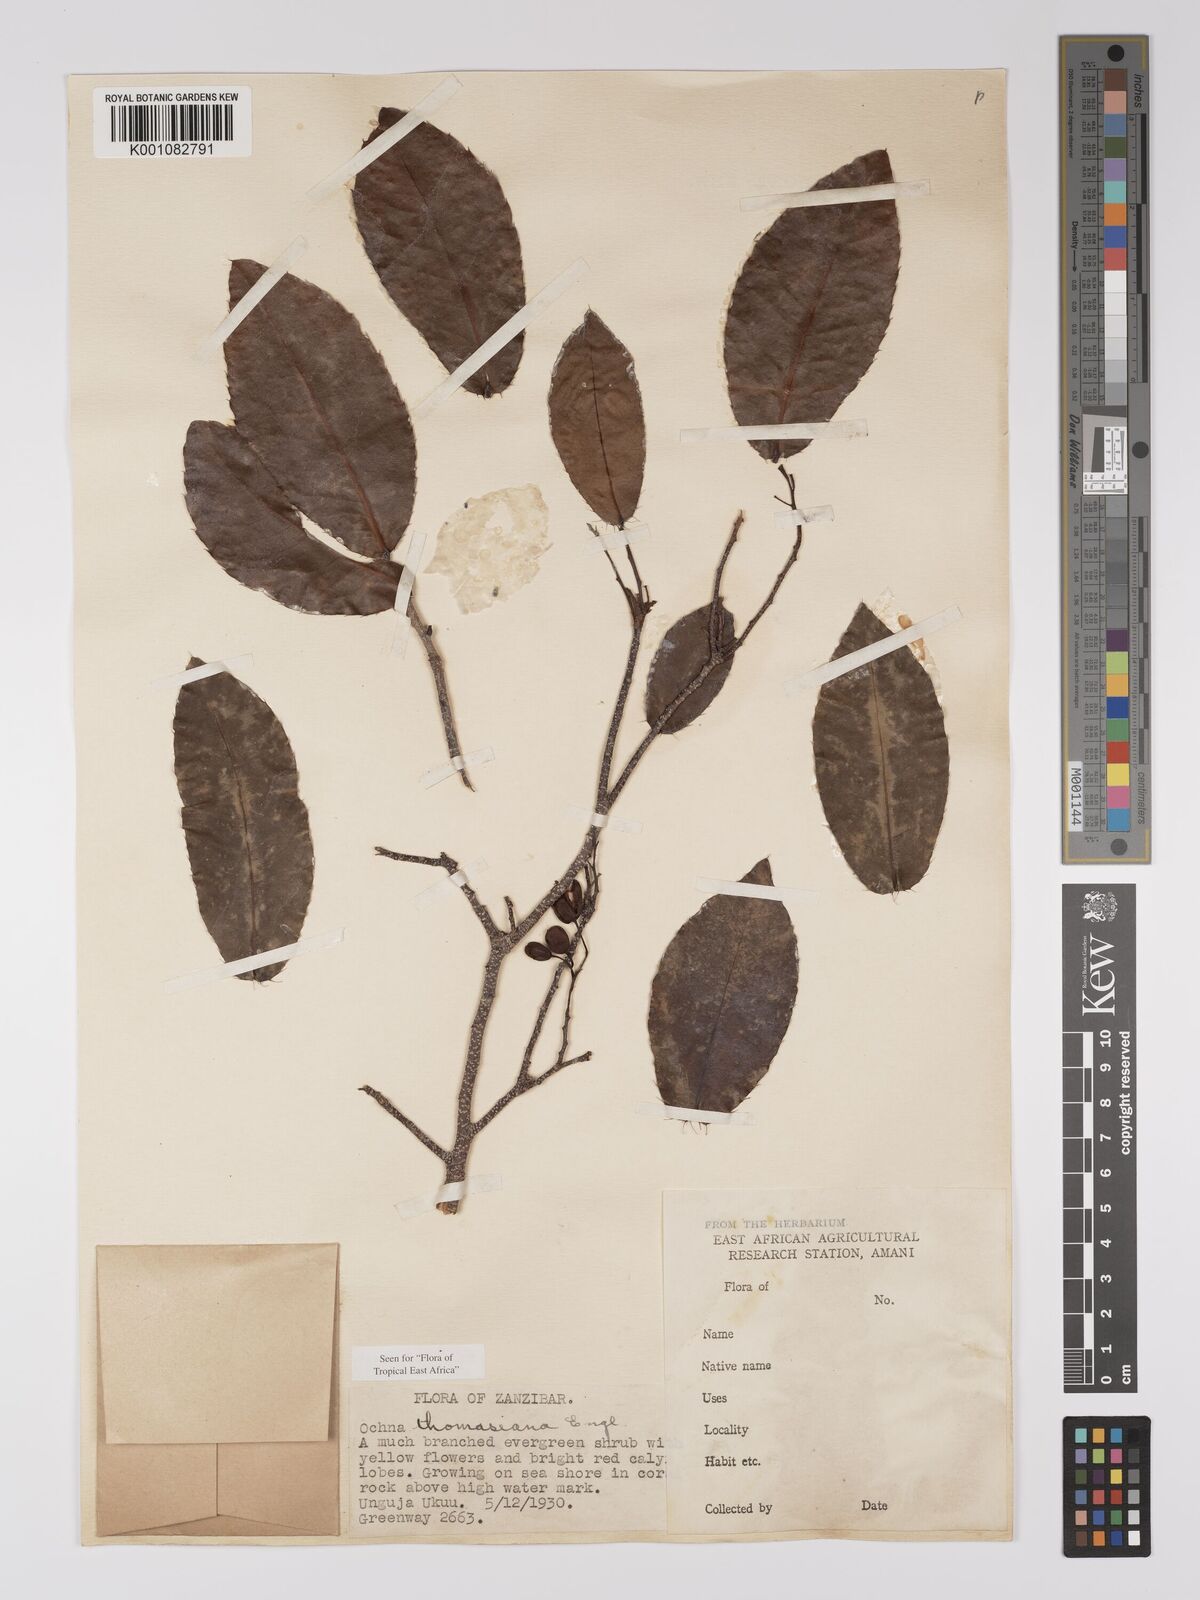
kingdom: Plantae
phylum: Tracheophyta
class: Magnoliopsida
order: Malpighiales
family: Ochnaceae
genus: Ochna
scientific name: Ochna thomasiana
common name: Thomas' bird's-eye bush
